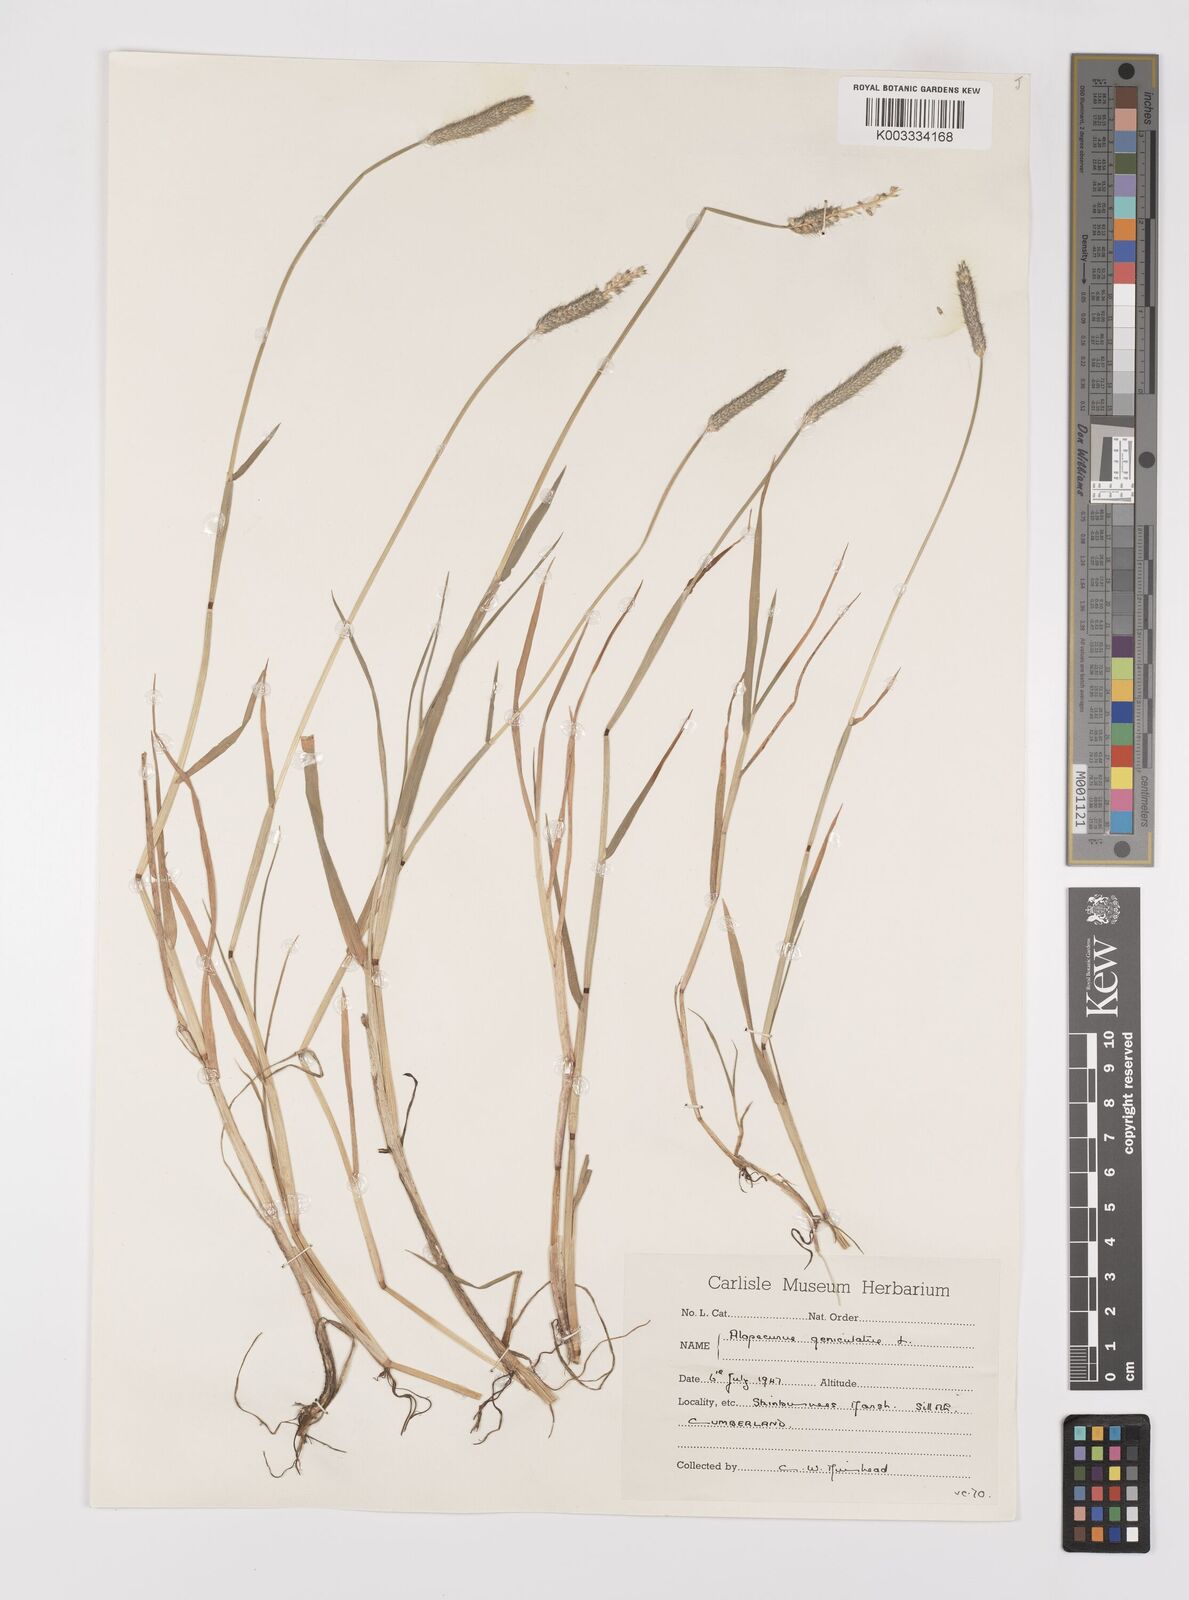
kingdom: Plantae
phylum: Tracheophyta
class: Liliopsida
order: Poales
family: Poaceae
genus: Alopecurus
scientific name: Alopecurus geniculatus
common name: Water foxtail
